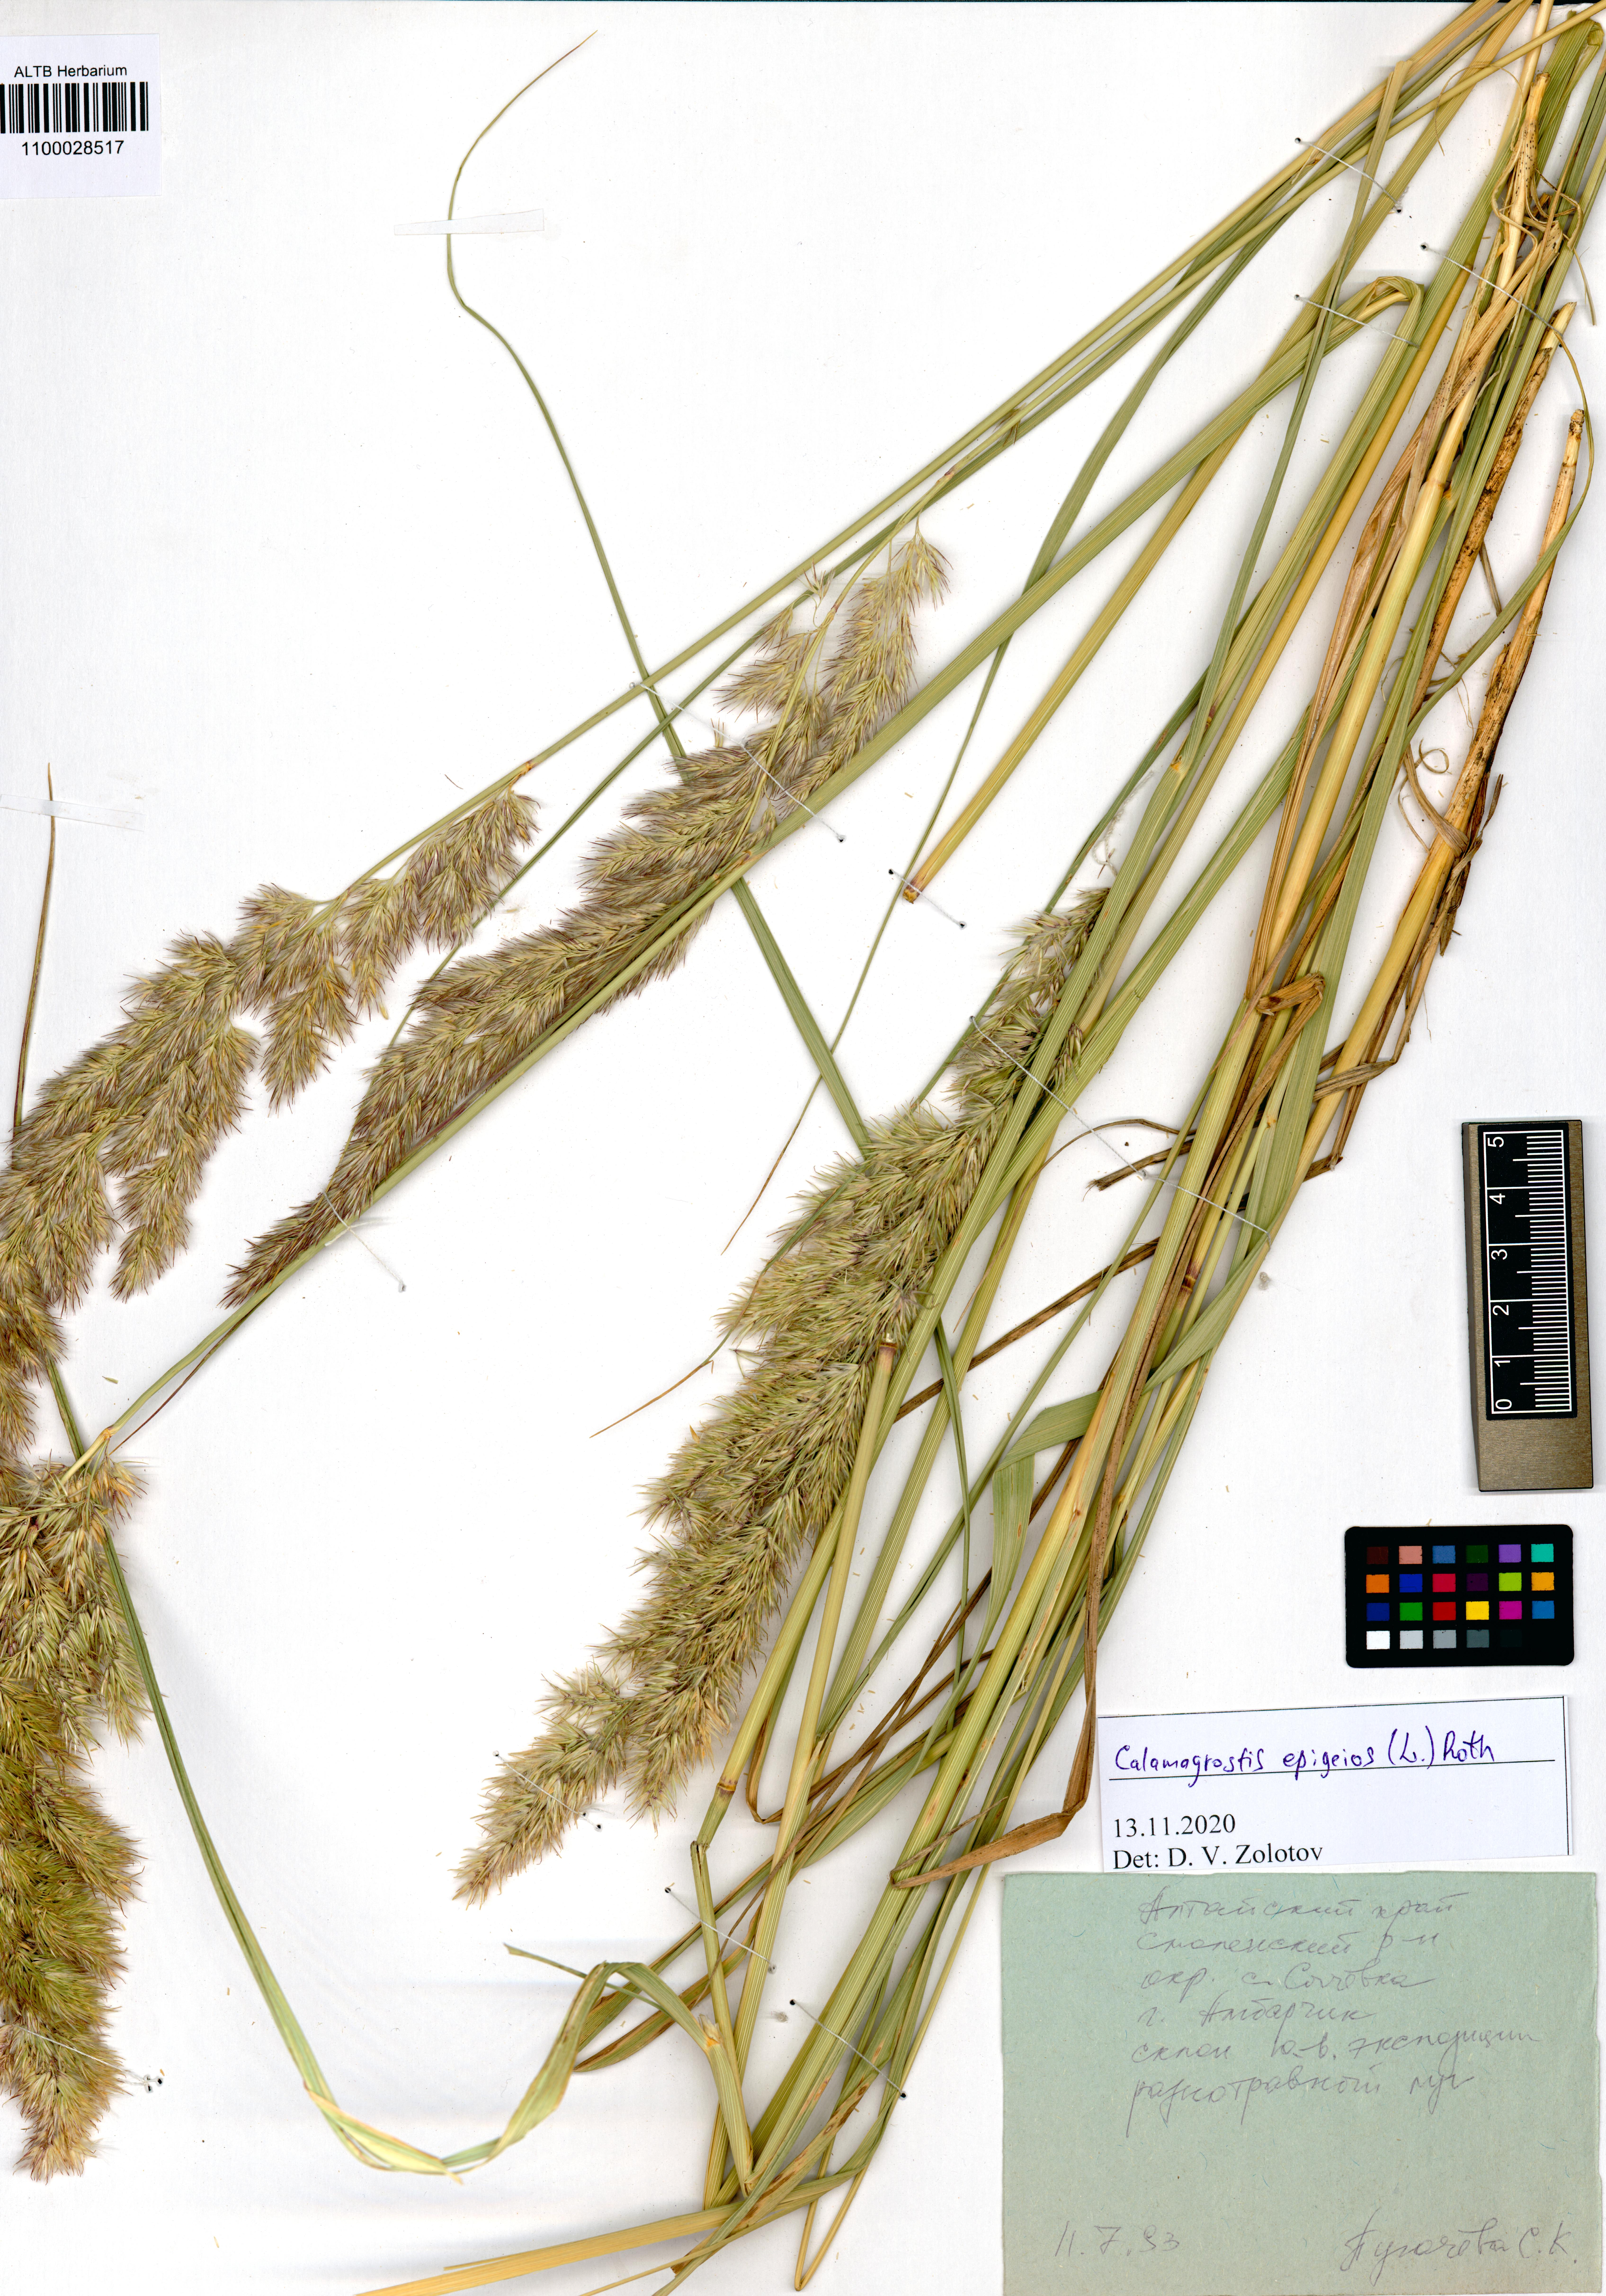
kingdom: Plantae
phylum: Tracheophyta
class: Liliopsida
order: Poales
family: Poaceae
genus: Calamagrostis
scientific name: Calamagrostis epigejos
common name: Wood small-reed
